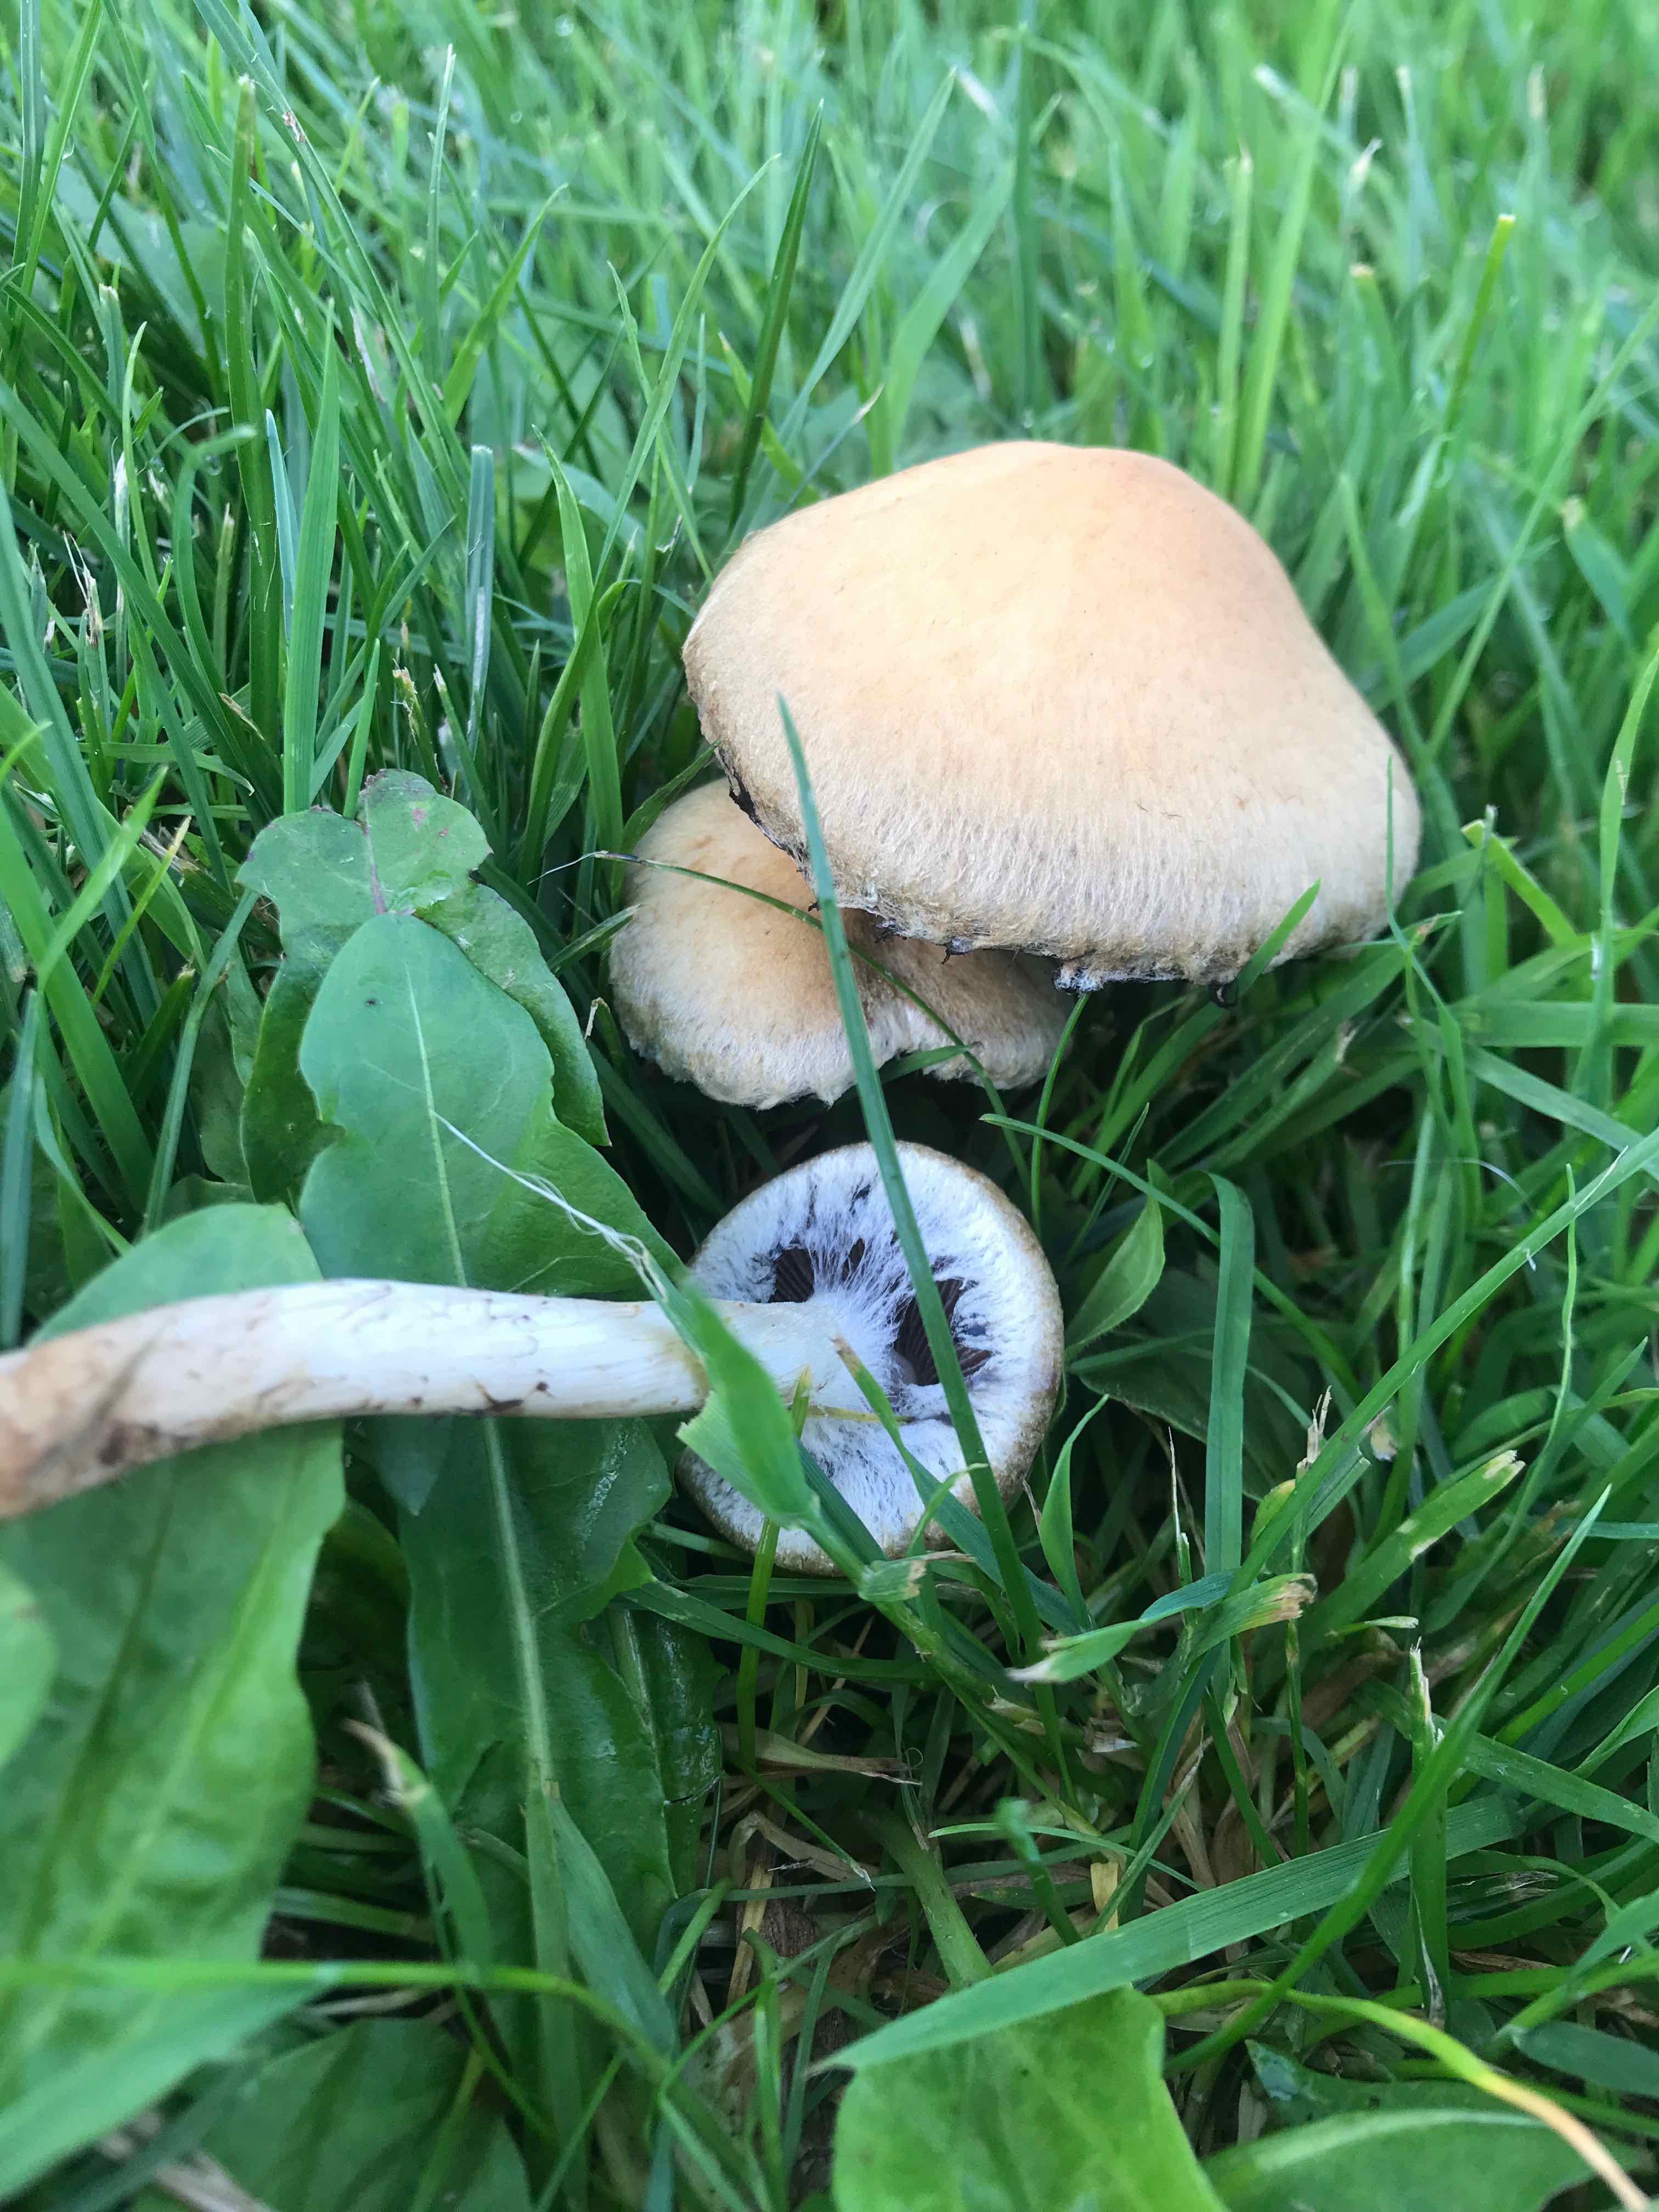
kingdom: Fungi
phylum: Basidiomycota
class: Agaricomycetes
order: Agaricales
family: Psathyrellaceae
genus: Lacrymaria
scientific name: Lacrymaria lacrymabunda
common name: grædende mørkhat
